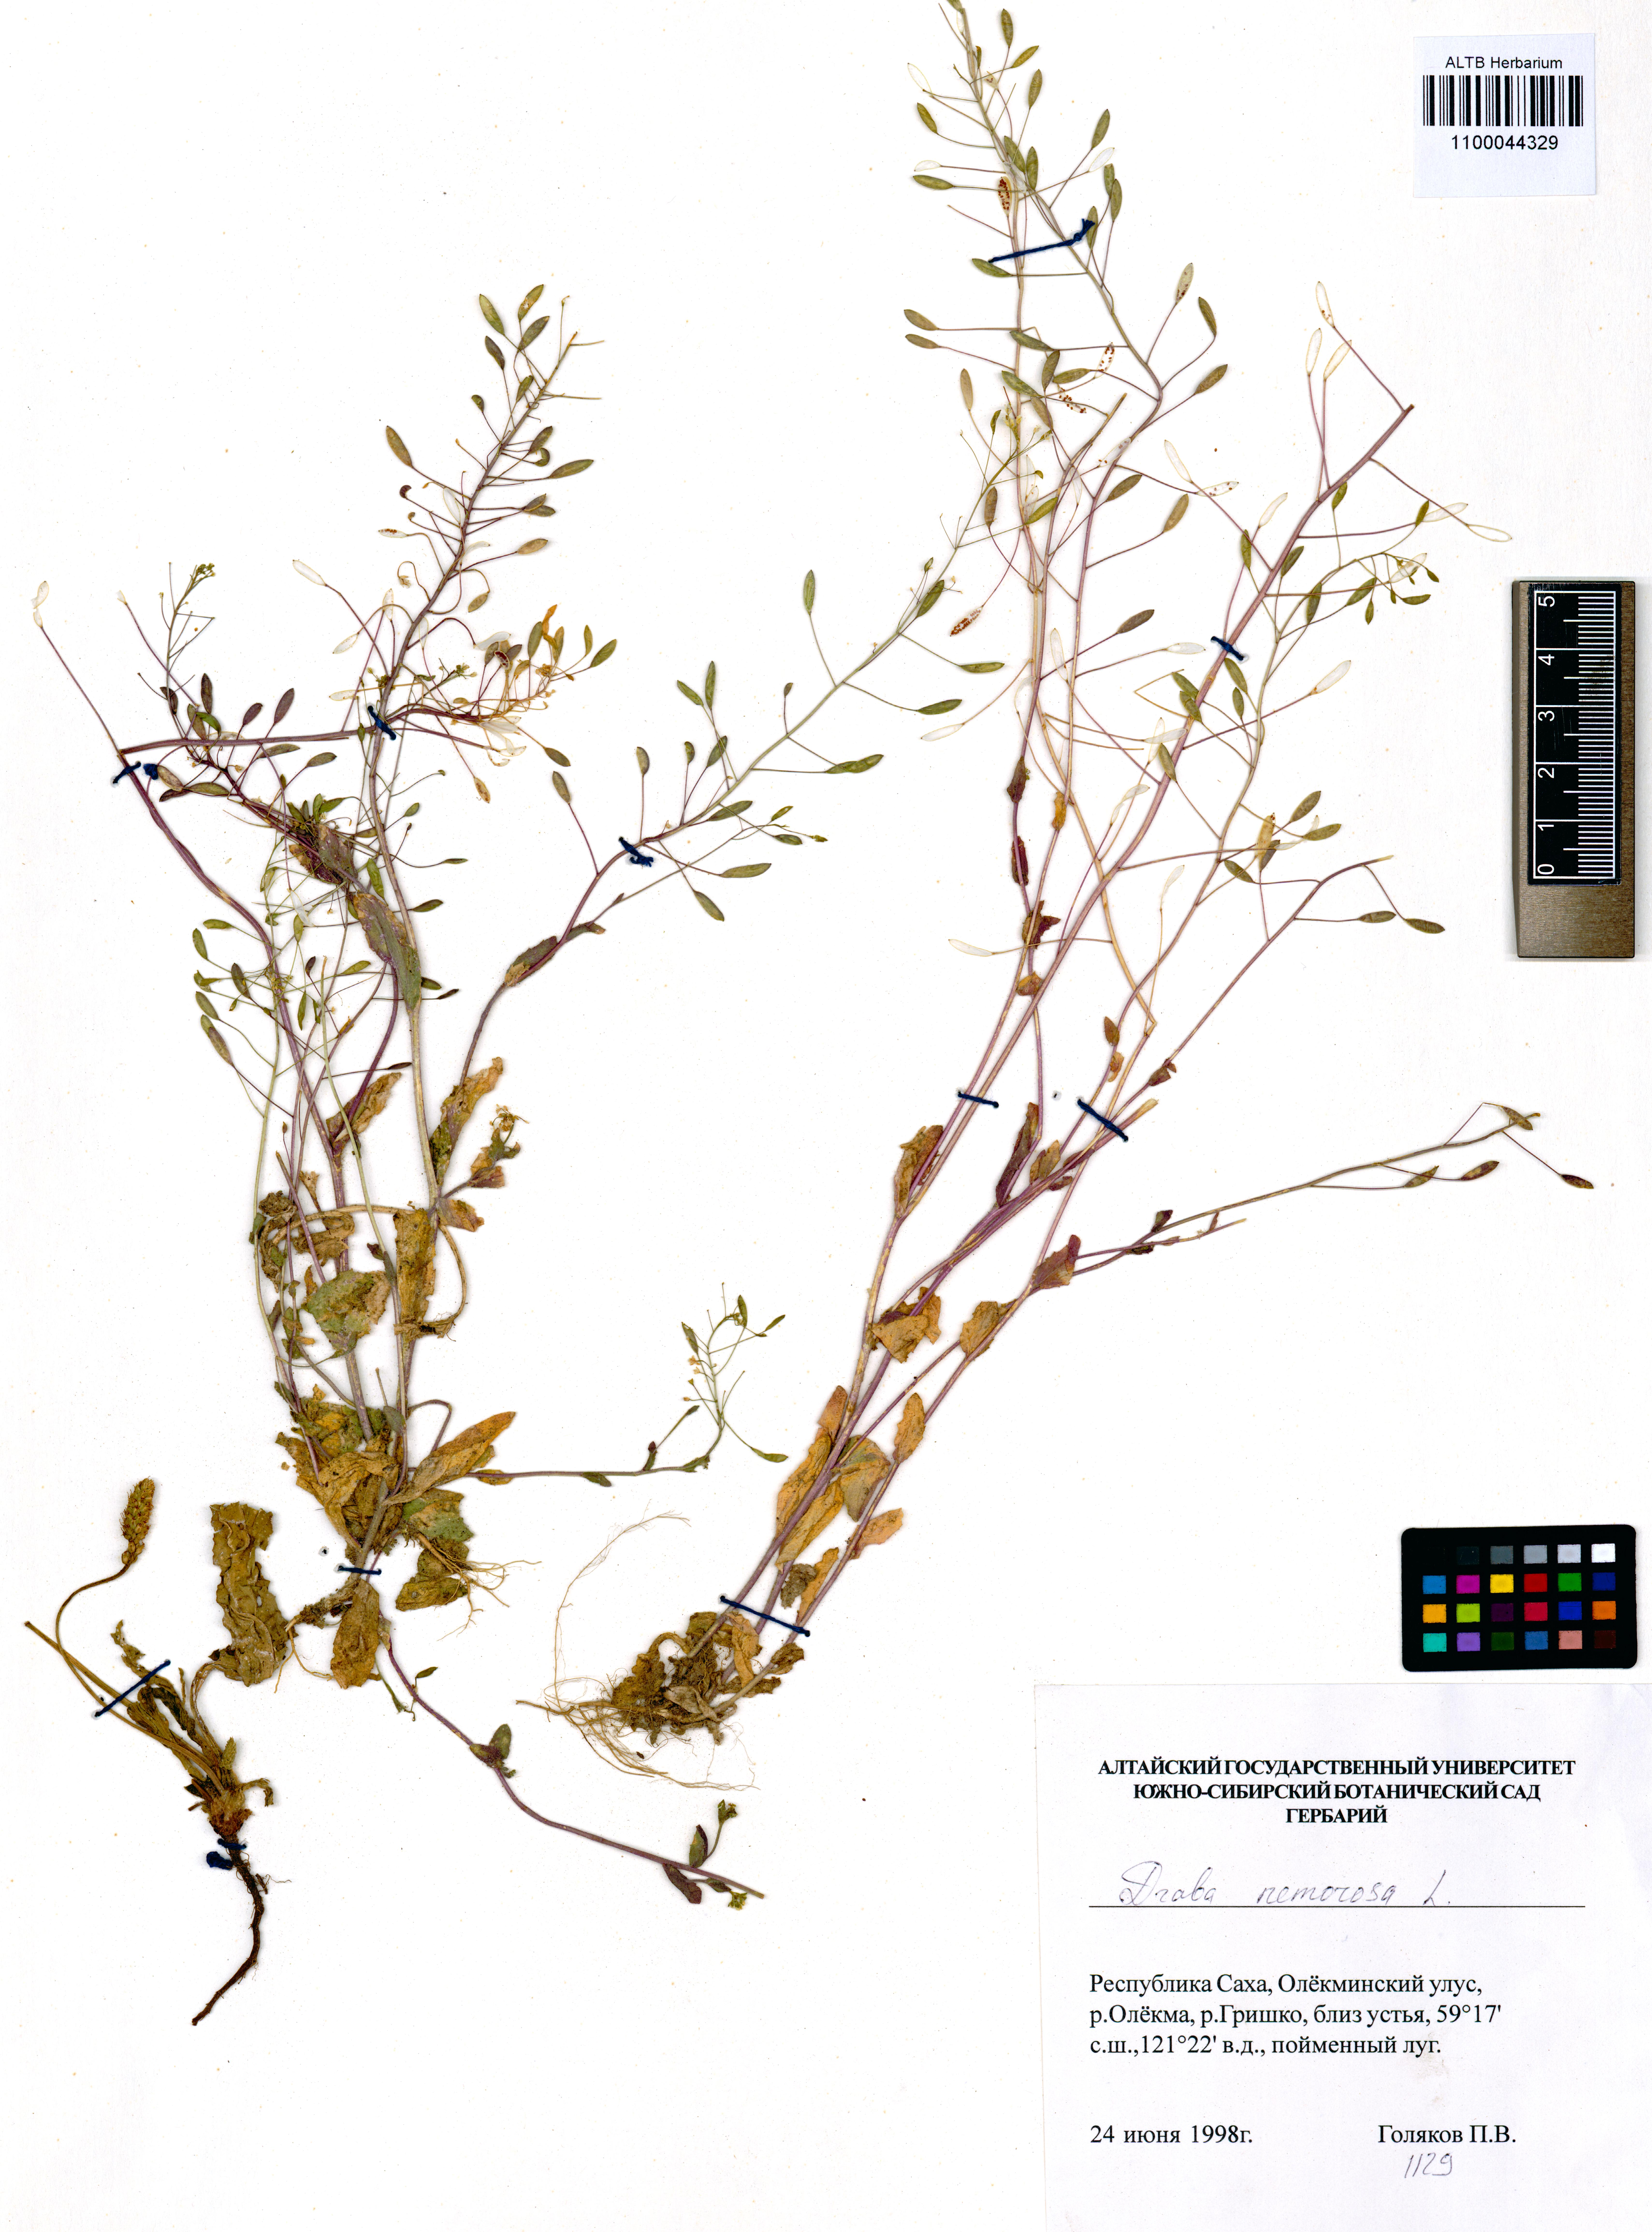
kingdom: Plantae
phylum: Tracheophyta
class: Magnoliopsida
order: Brassicales
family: Brassicaceae
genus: Draba
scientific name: Draba nemorosa
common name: Wood whitlow-grass
